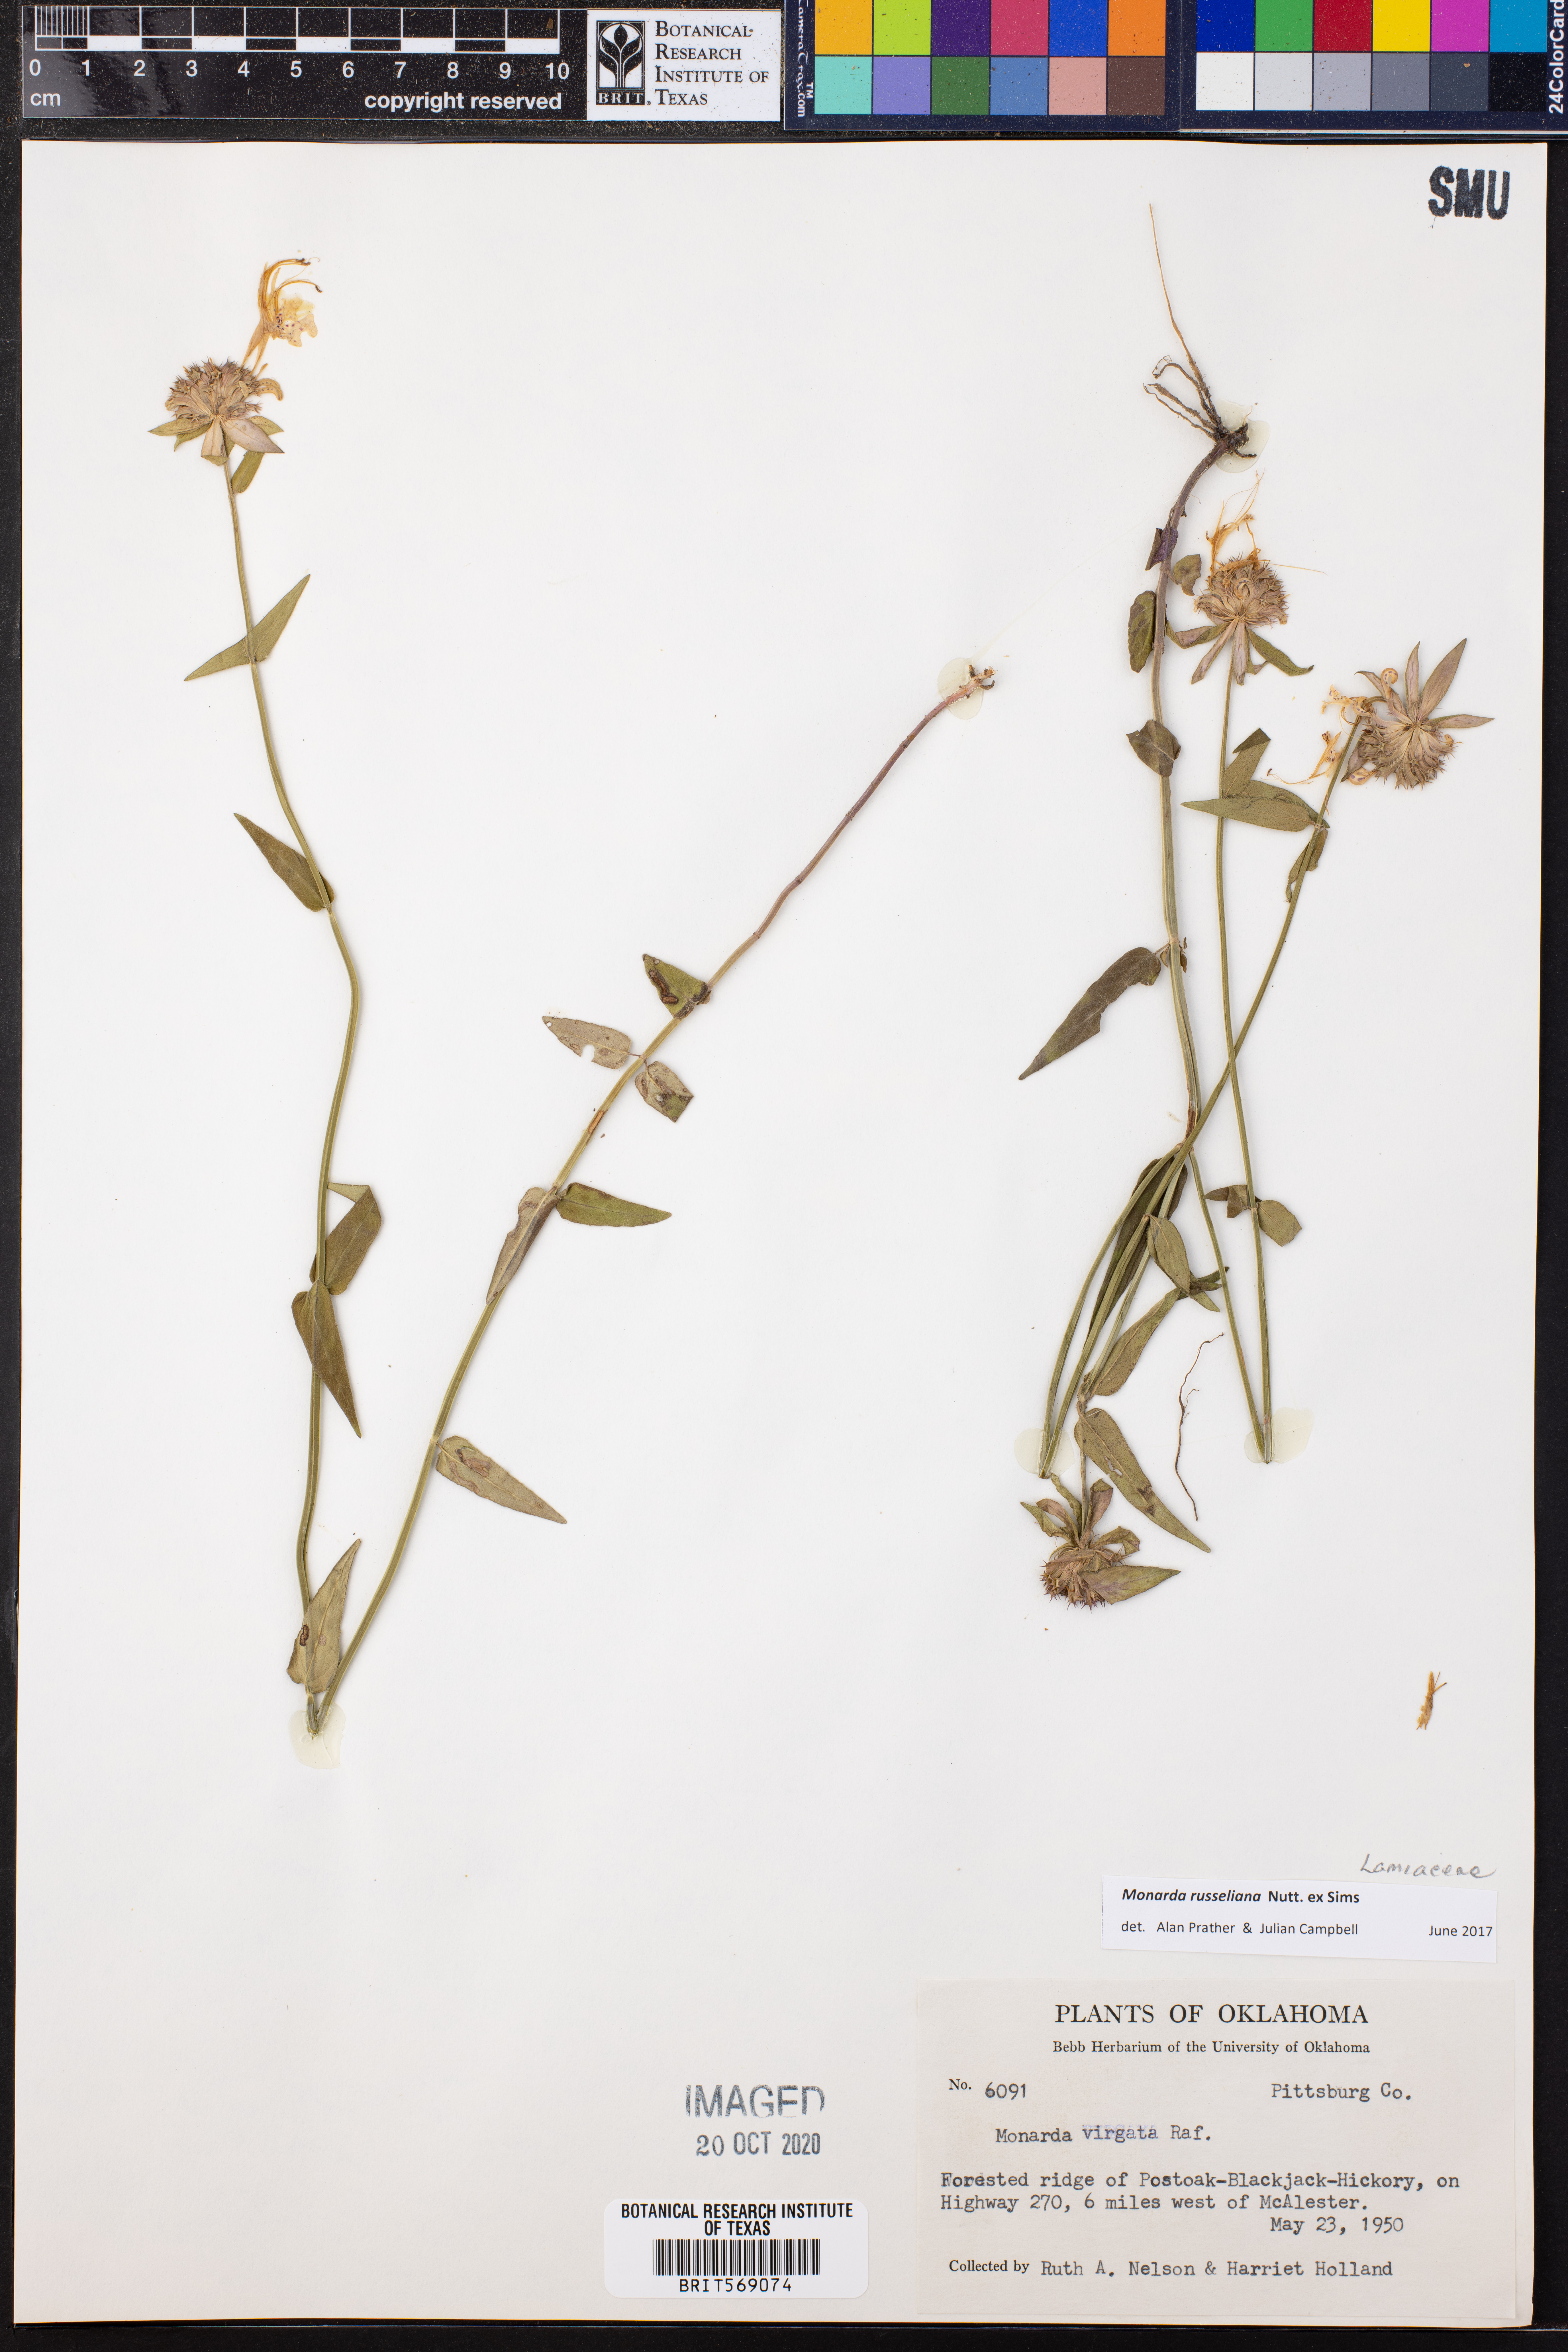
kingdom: Plantae
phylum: Tracheophyta
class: Magnoliopsida
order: Lamiales
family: Lamiaceae
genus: Monarda
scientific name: Monarda russeliana
